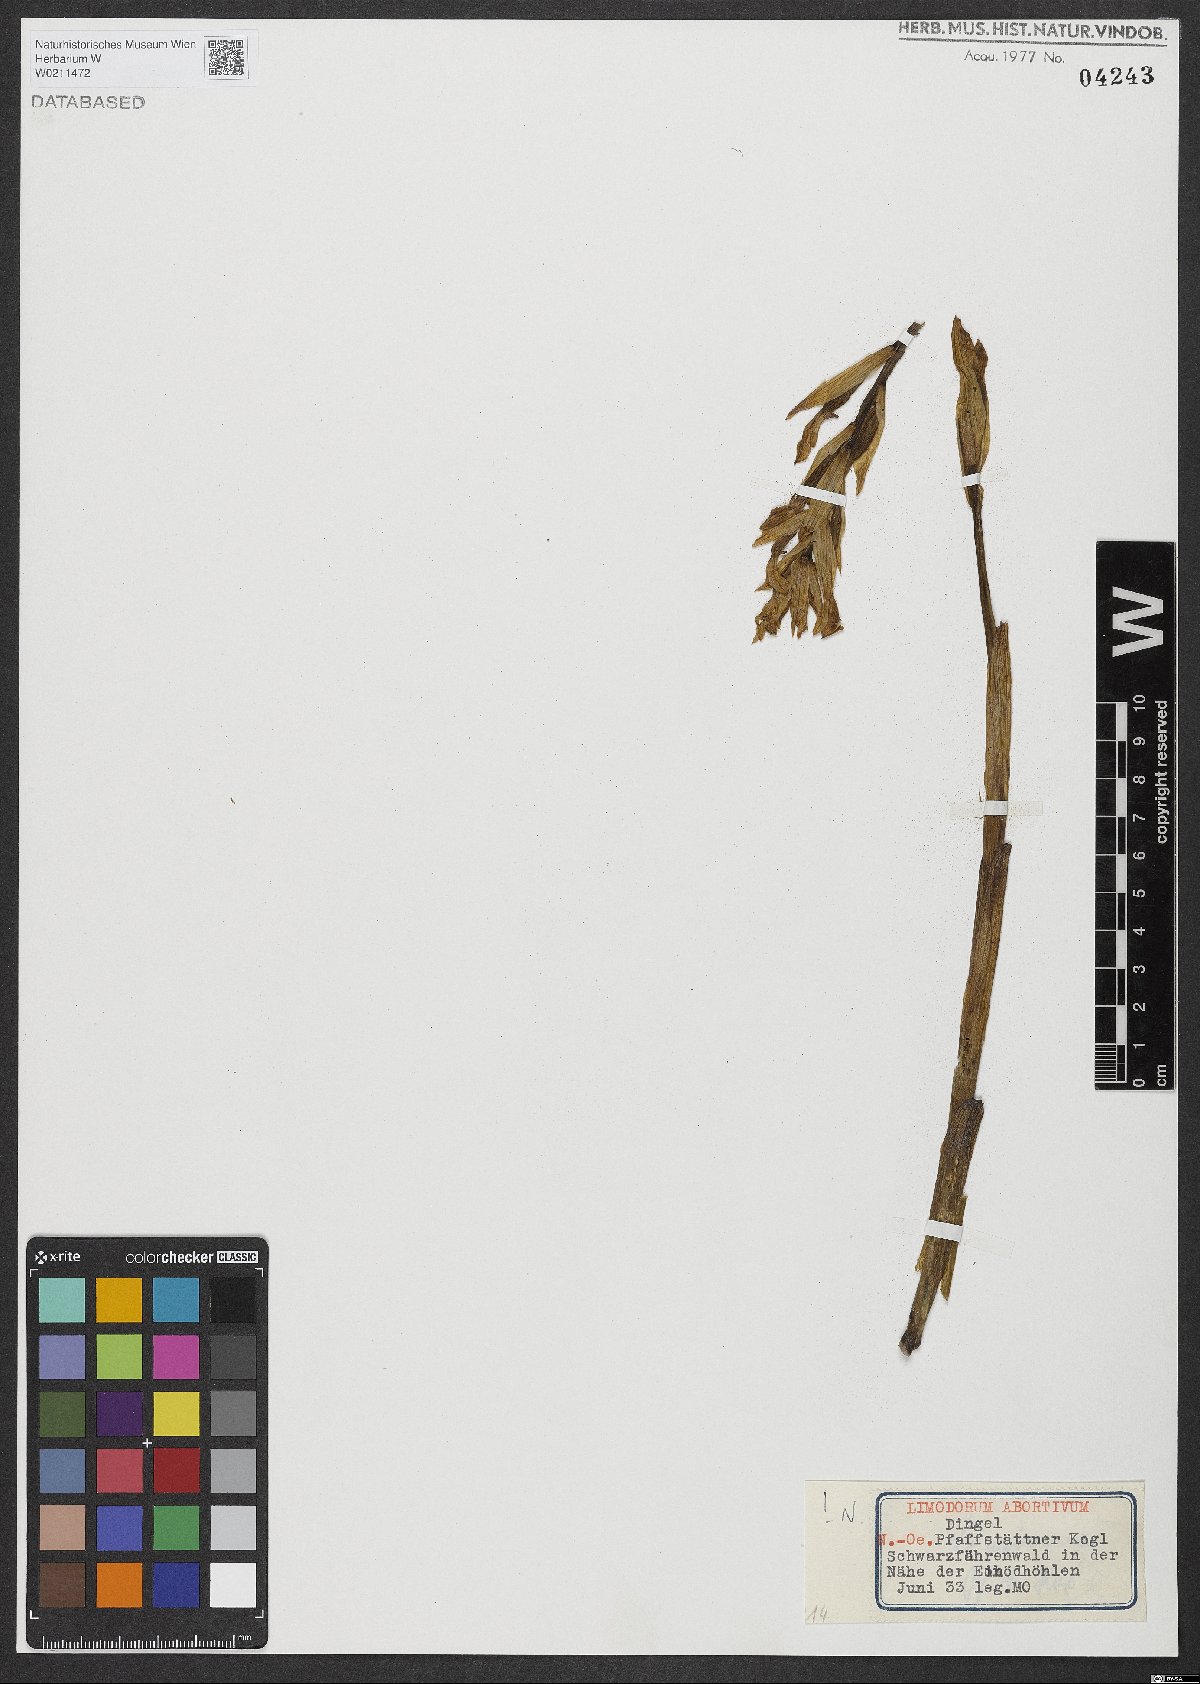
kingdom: Plantae
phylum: Tracheophyta
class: Liliopsida
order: Asparagales
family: Orchidaceae
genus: Limodorum
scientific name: Limodorum abortivum
